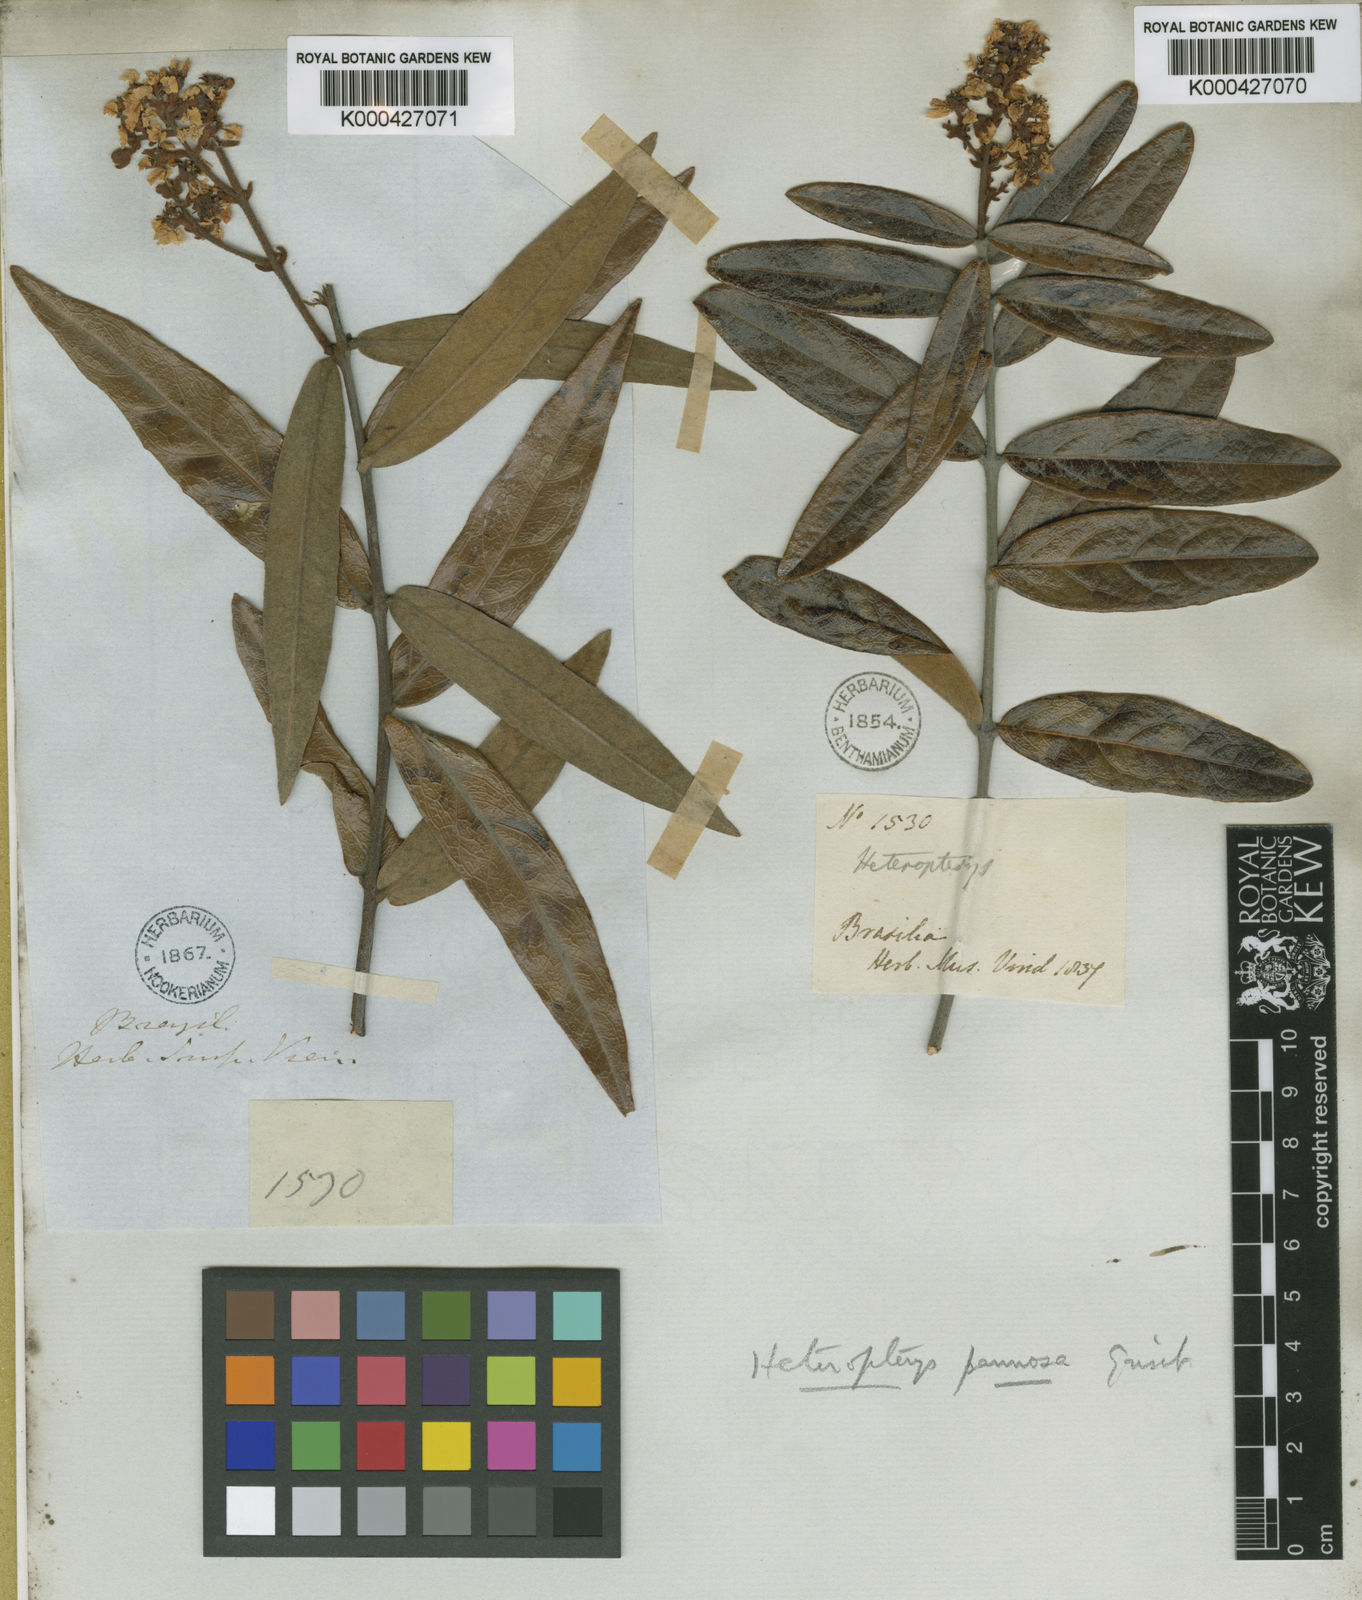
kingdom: Plantae
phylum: Tracheophyta
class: Magnoliopsida
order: Malpighiales
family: Malpighiaceae
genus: Heteropterys
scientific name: Heteropterys pannosa
